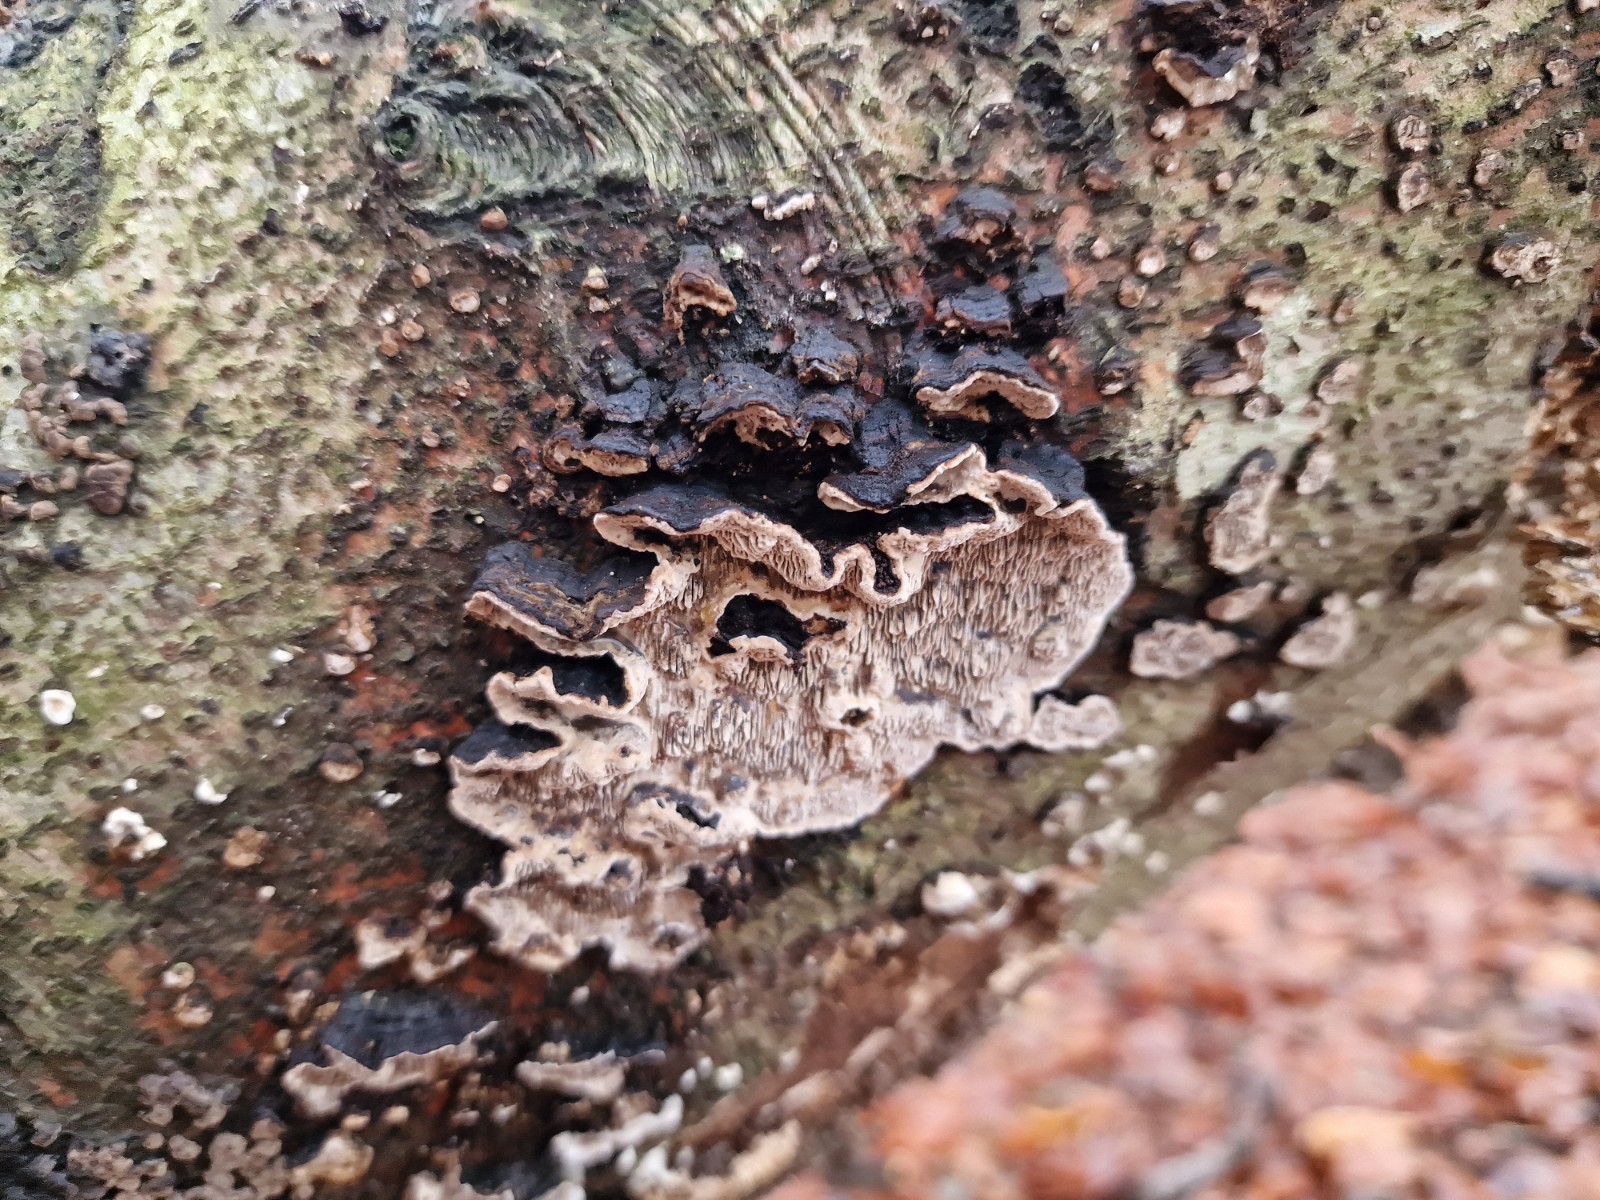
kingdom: Fungi
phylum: Basidiomycota
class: Agaricomycetes
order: Polyporales
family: Polyporaceae
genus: Podofomes
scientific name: Podofomes mollis
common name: blød begporesvamp
